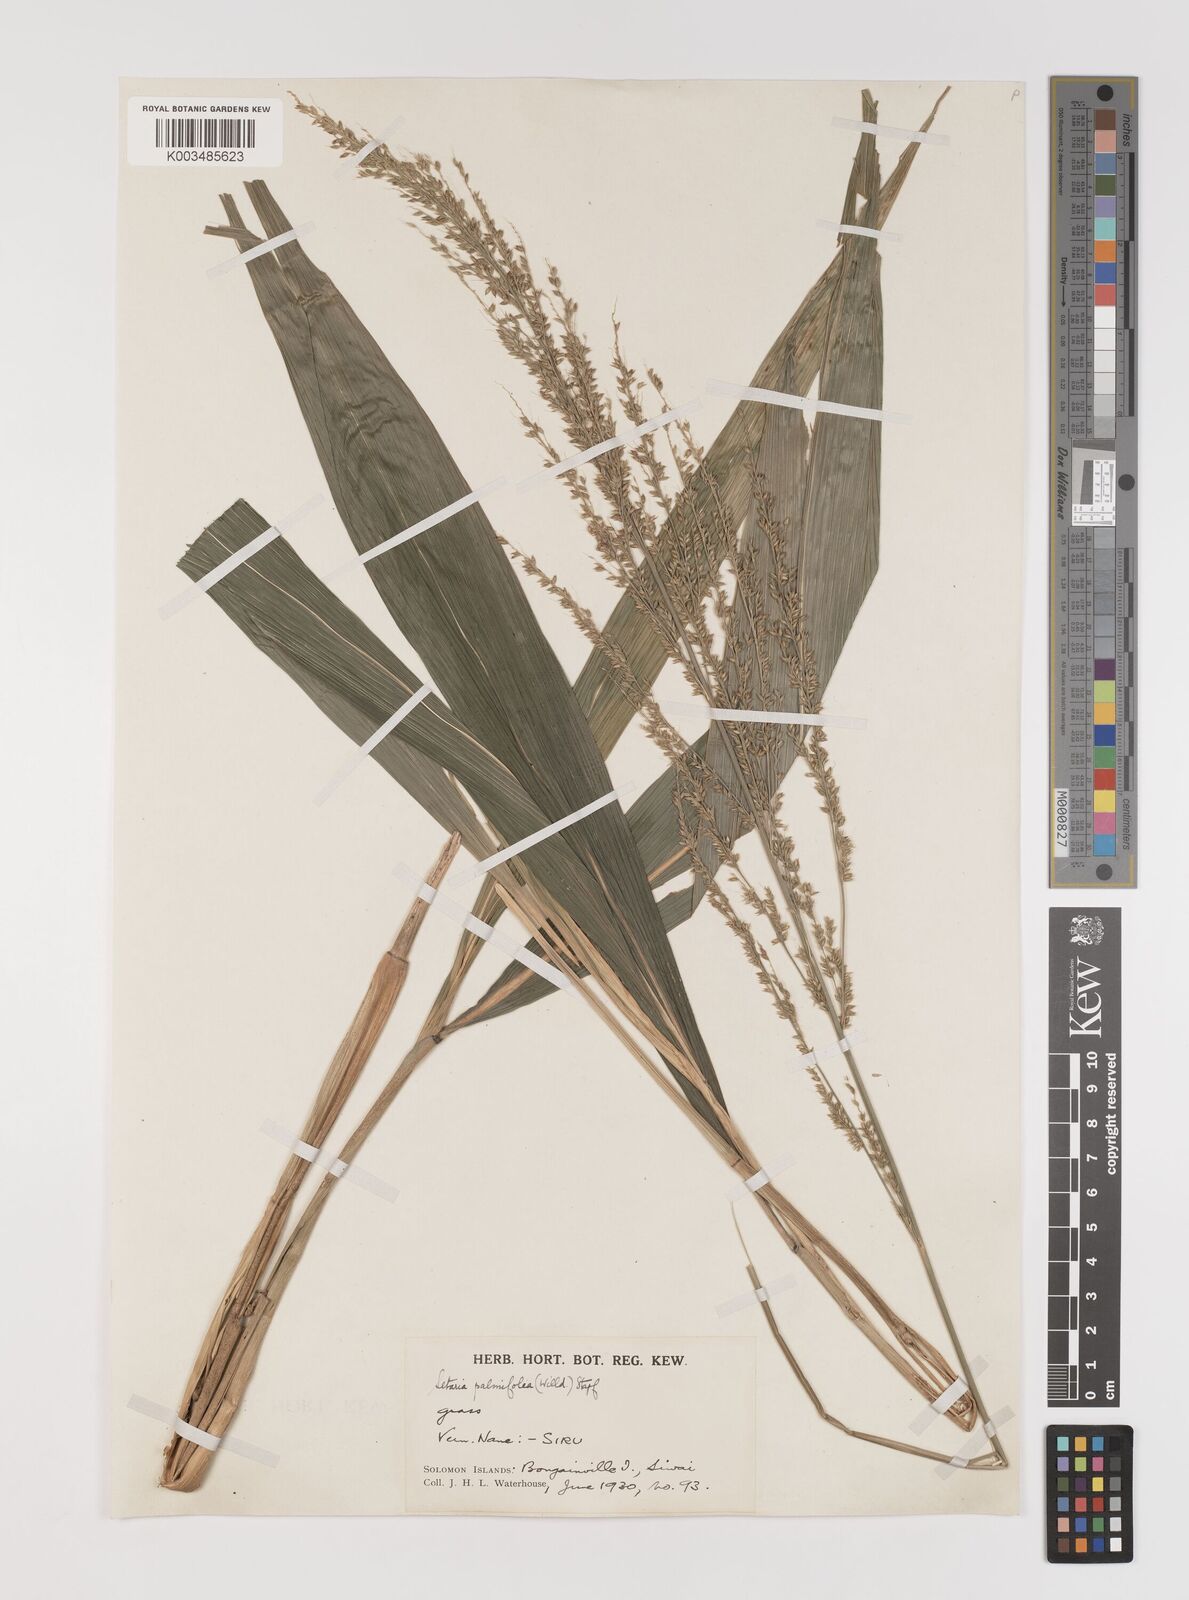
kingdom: Plantae
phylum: Tracheophyta
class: Liliopsida
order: Poales
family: Poaceae
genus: Setaria
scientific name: Setaria palmifolia
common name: Broadleaved bristlegrass
